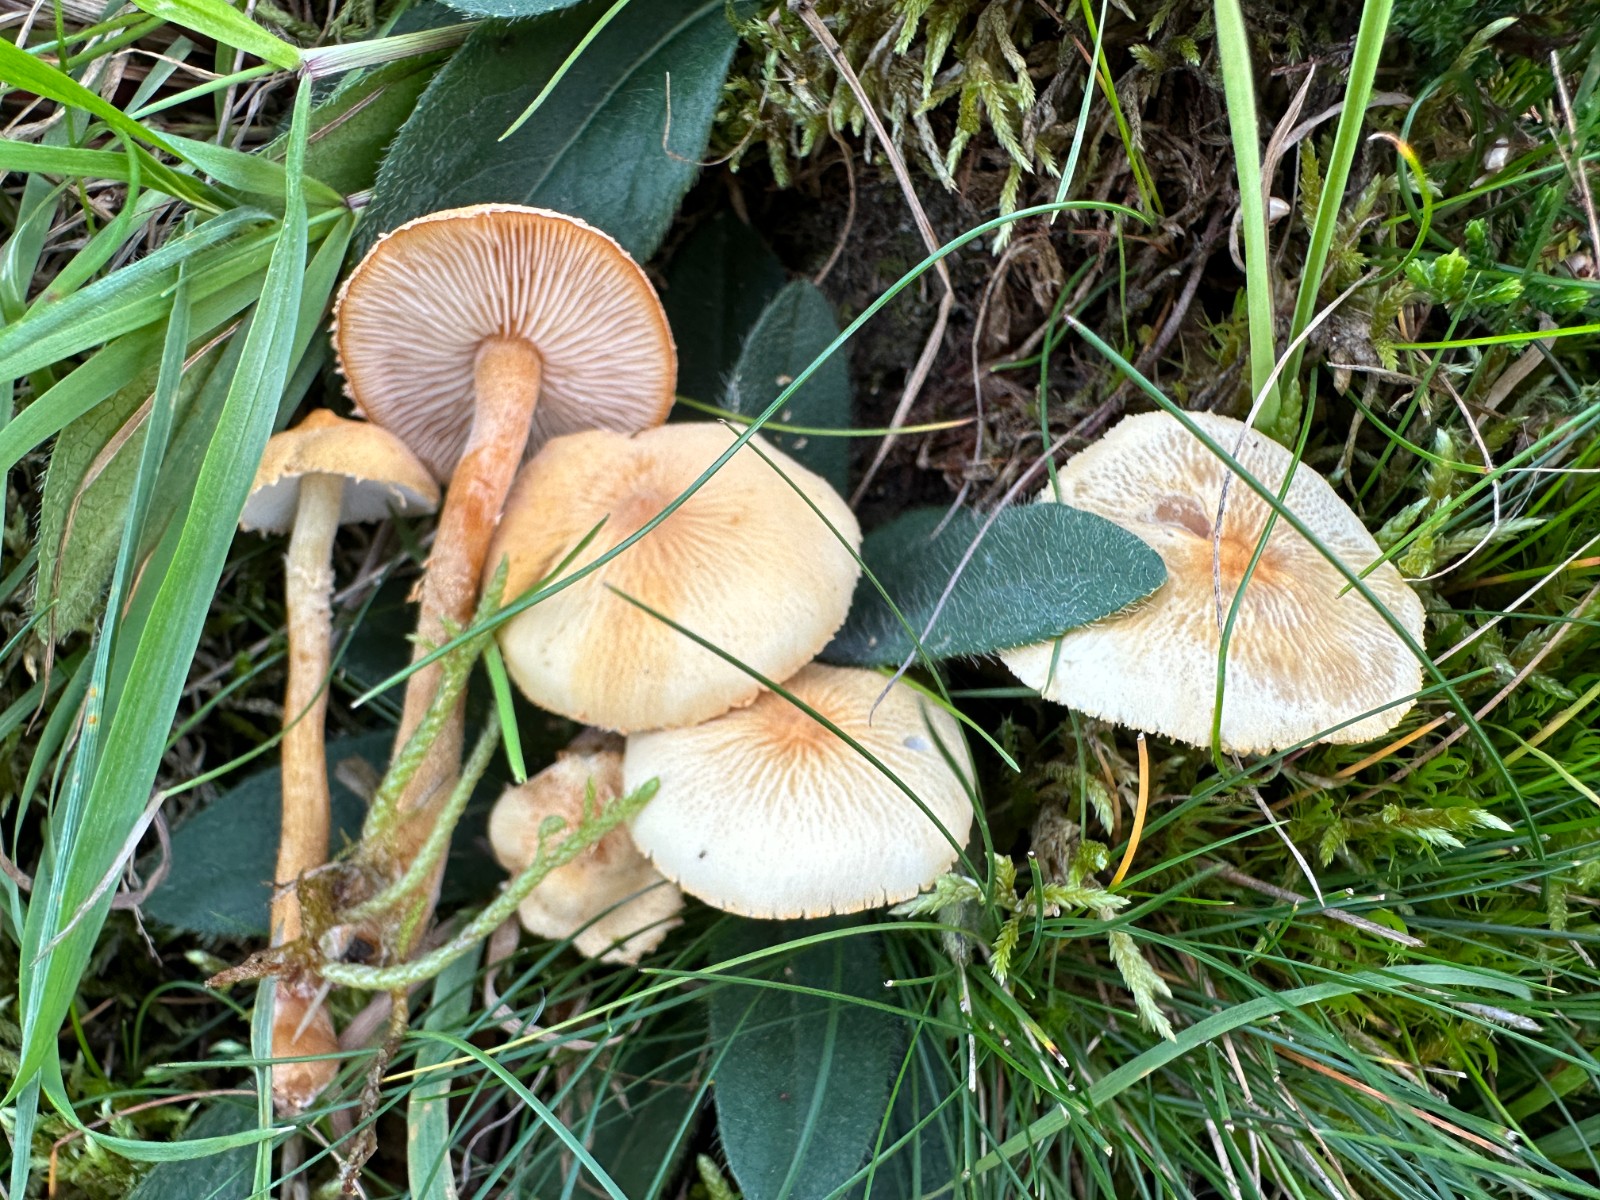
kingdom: Fungi
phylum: Basidiomycota
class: Agaricomycetes
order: Agaricales
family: Tricholomataceae
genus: Cystoderma
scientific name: Cystoderma amianthinum
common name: okkergul grynhat
